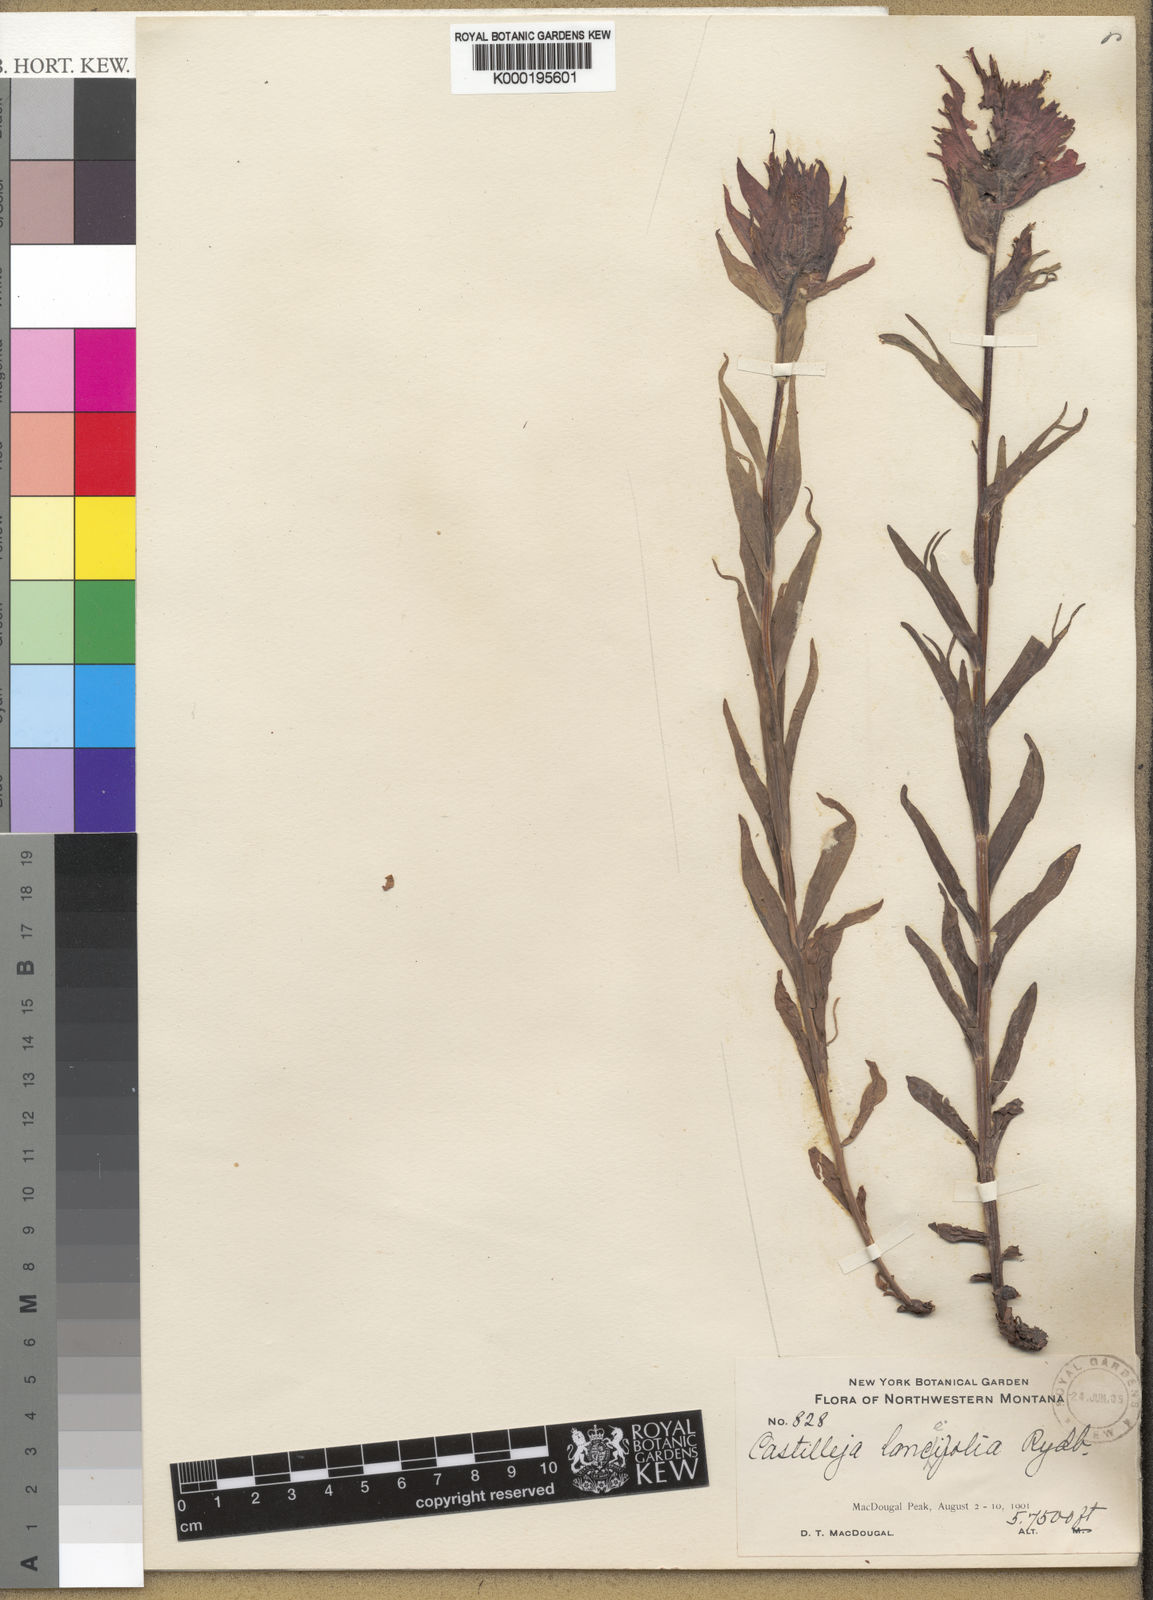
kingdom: Plantae
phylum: Tracheophyta
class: Magnoliopsida
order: Lamiales
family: Orobanchaceae
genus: Castilleja
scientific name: Castilleja
